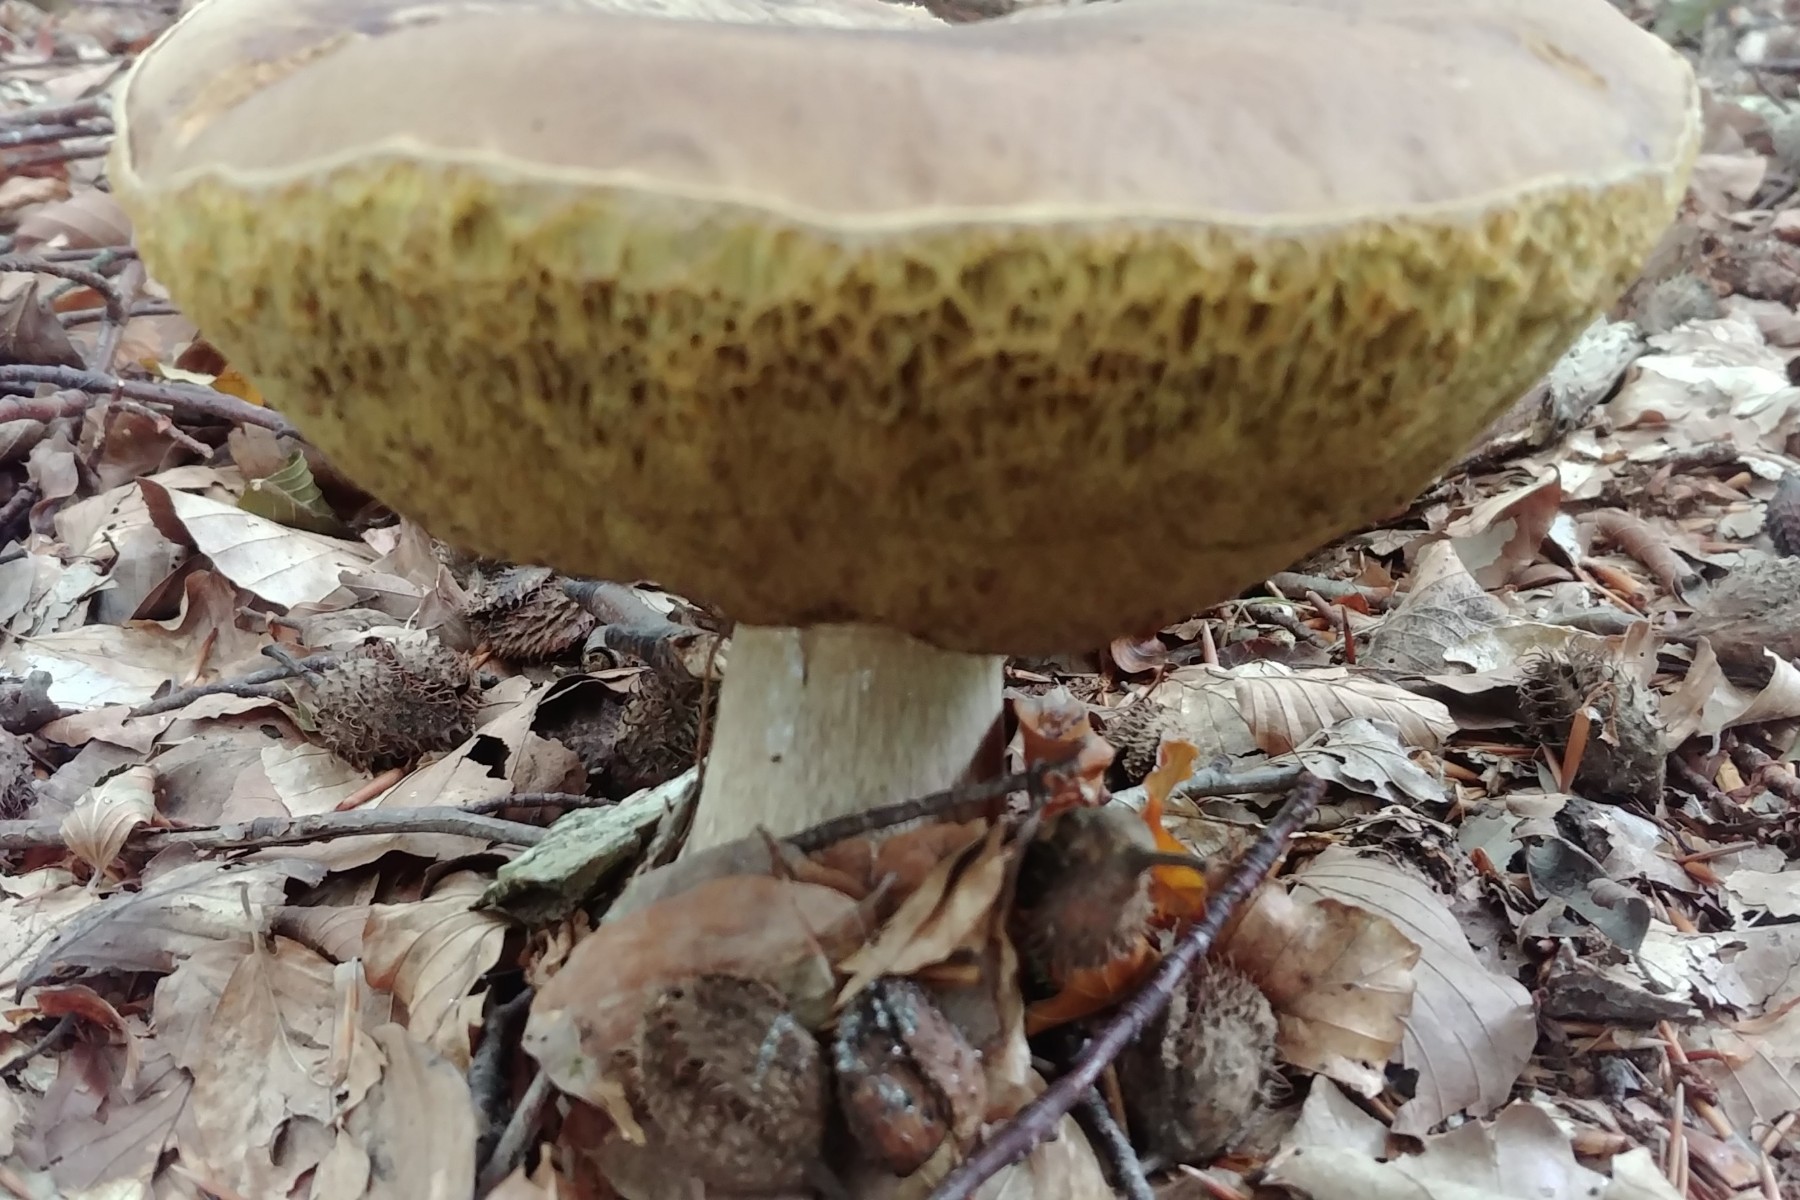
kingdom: Fungi
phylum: Basidiomycota
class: Agaricomycetes
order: Boletales
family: Boletaceae
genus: Boletus
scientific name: Boletus edulis
